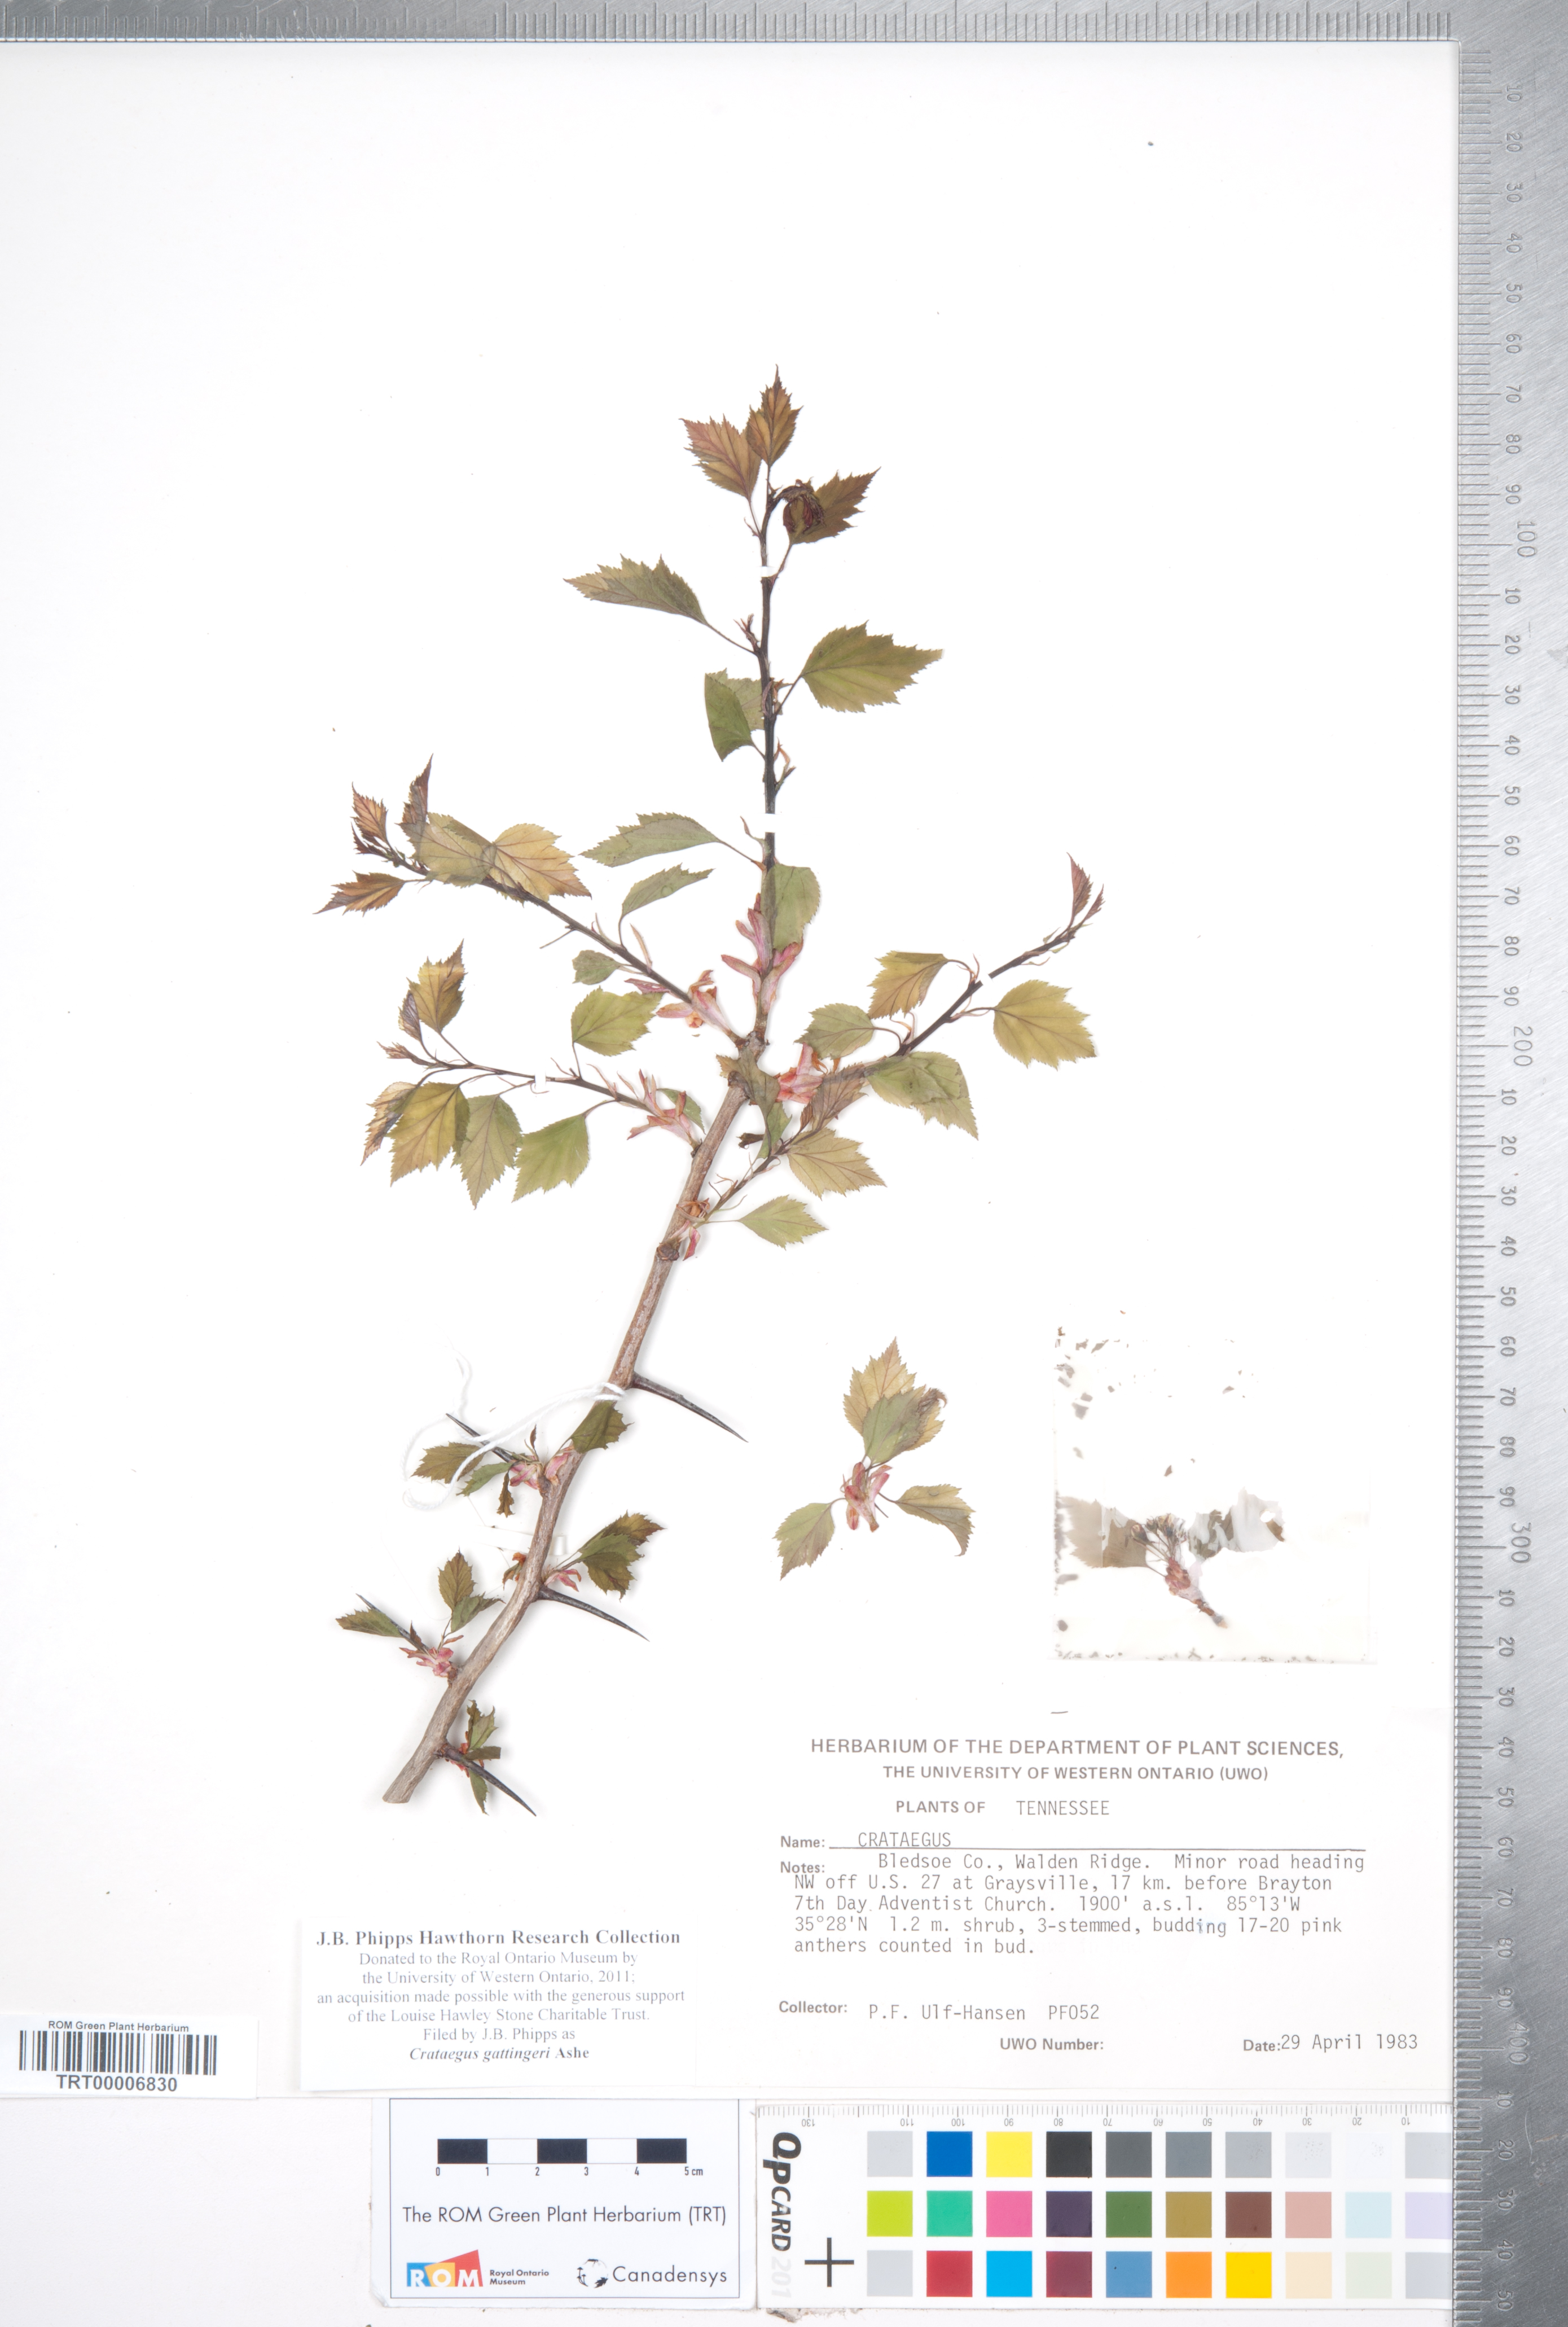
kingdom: Plantae
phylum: Tracheophyta
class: Magnoliopsida
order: Rosales
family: Rosaceae
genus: Crataegus
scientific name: Crataegus gattingeri
